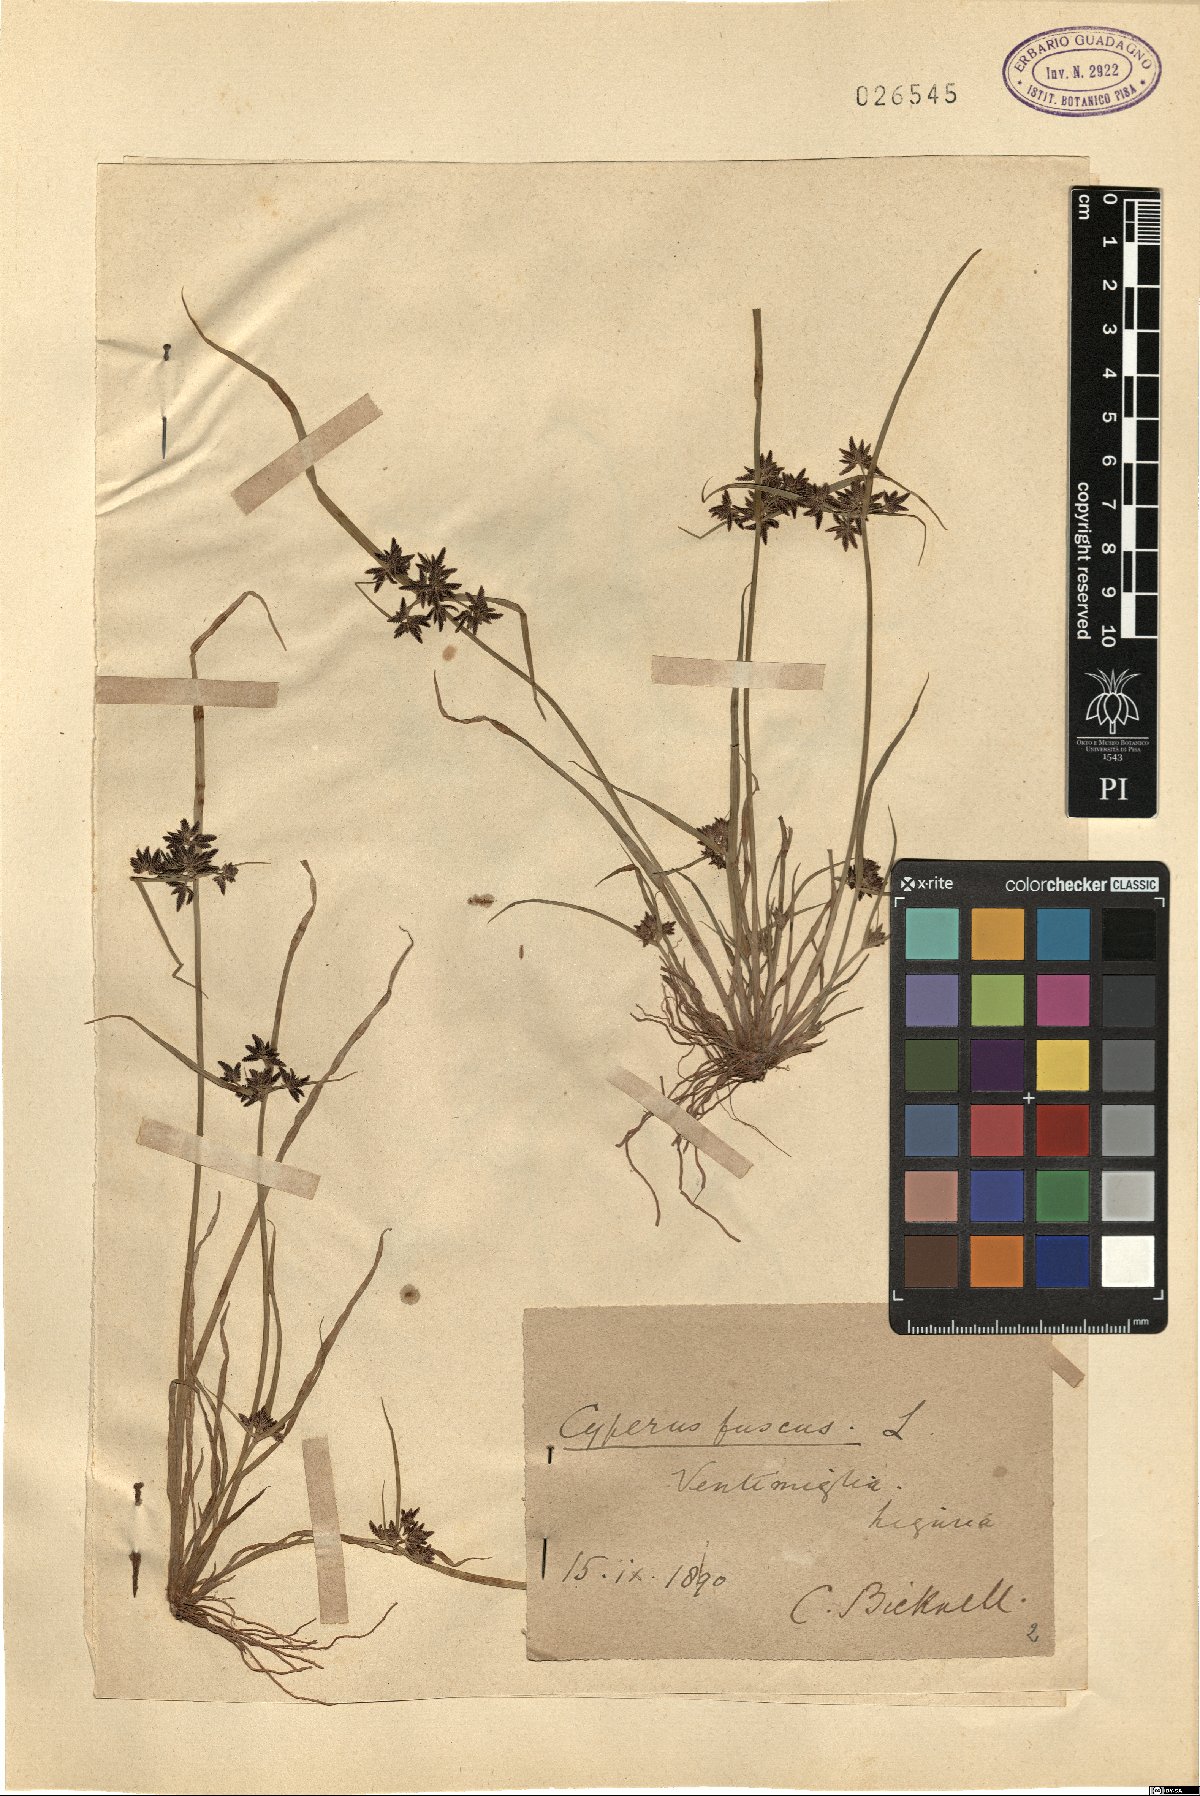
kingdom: Plantae
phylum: Tracheophyta
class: Liliopsida
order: Poales
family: Cyperaceae
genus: Cyperus
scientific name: Cyperus fuscus
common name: Brown galingale
